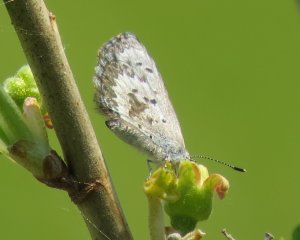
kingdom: Animalia
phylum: Arthropoda
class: Insecta
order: Lepidoptera
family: Lycaenidae
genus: Celastrina
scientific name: Celastrina
